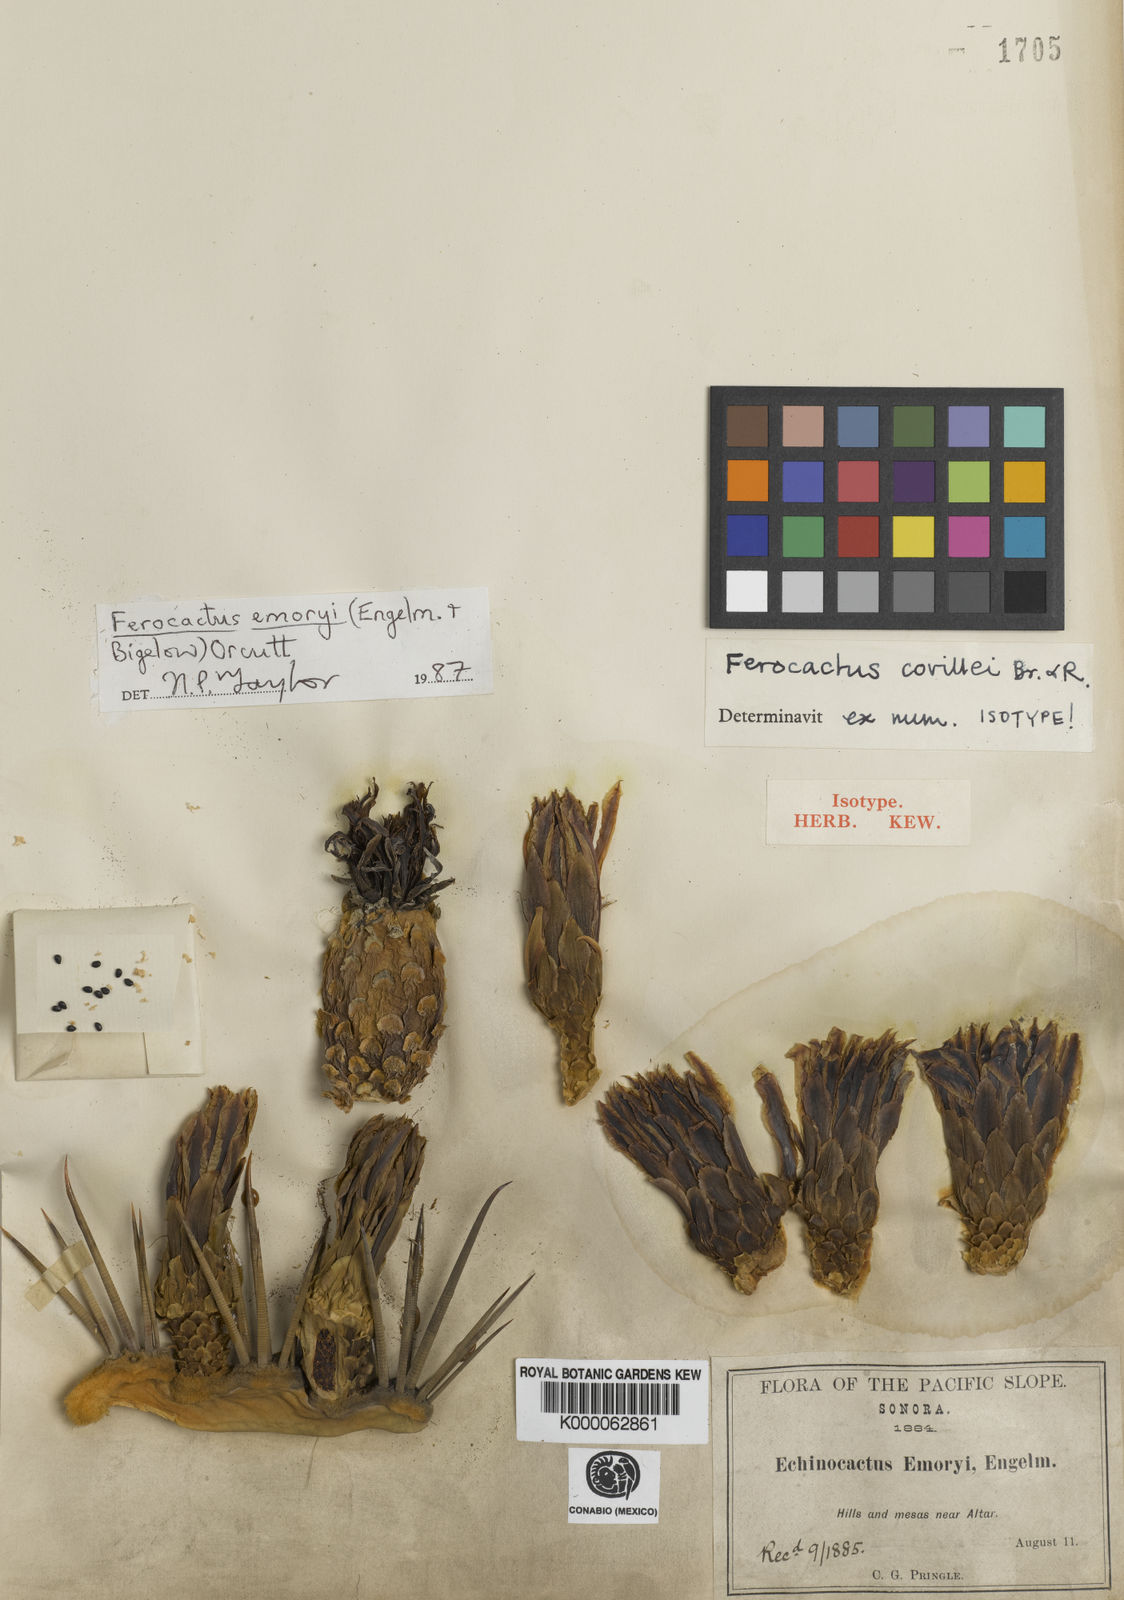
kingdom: Plantae
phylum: Tracheophyta
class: Magnoliopsida
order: Caryophyllales
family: Cactaceae
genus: Ferocactus
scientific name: Ferocactus emoryi
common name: Emory's barrel cactus
